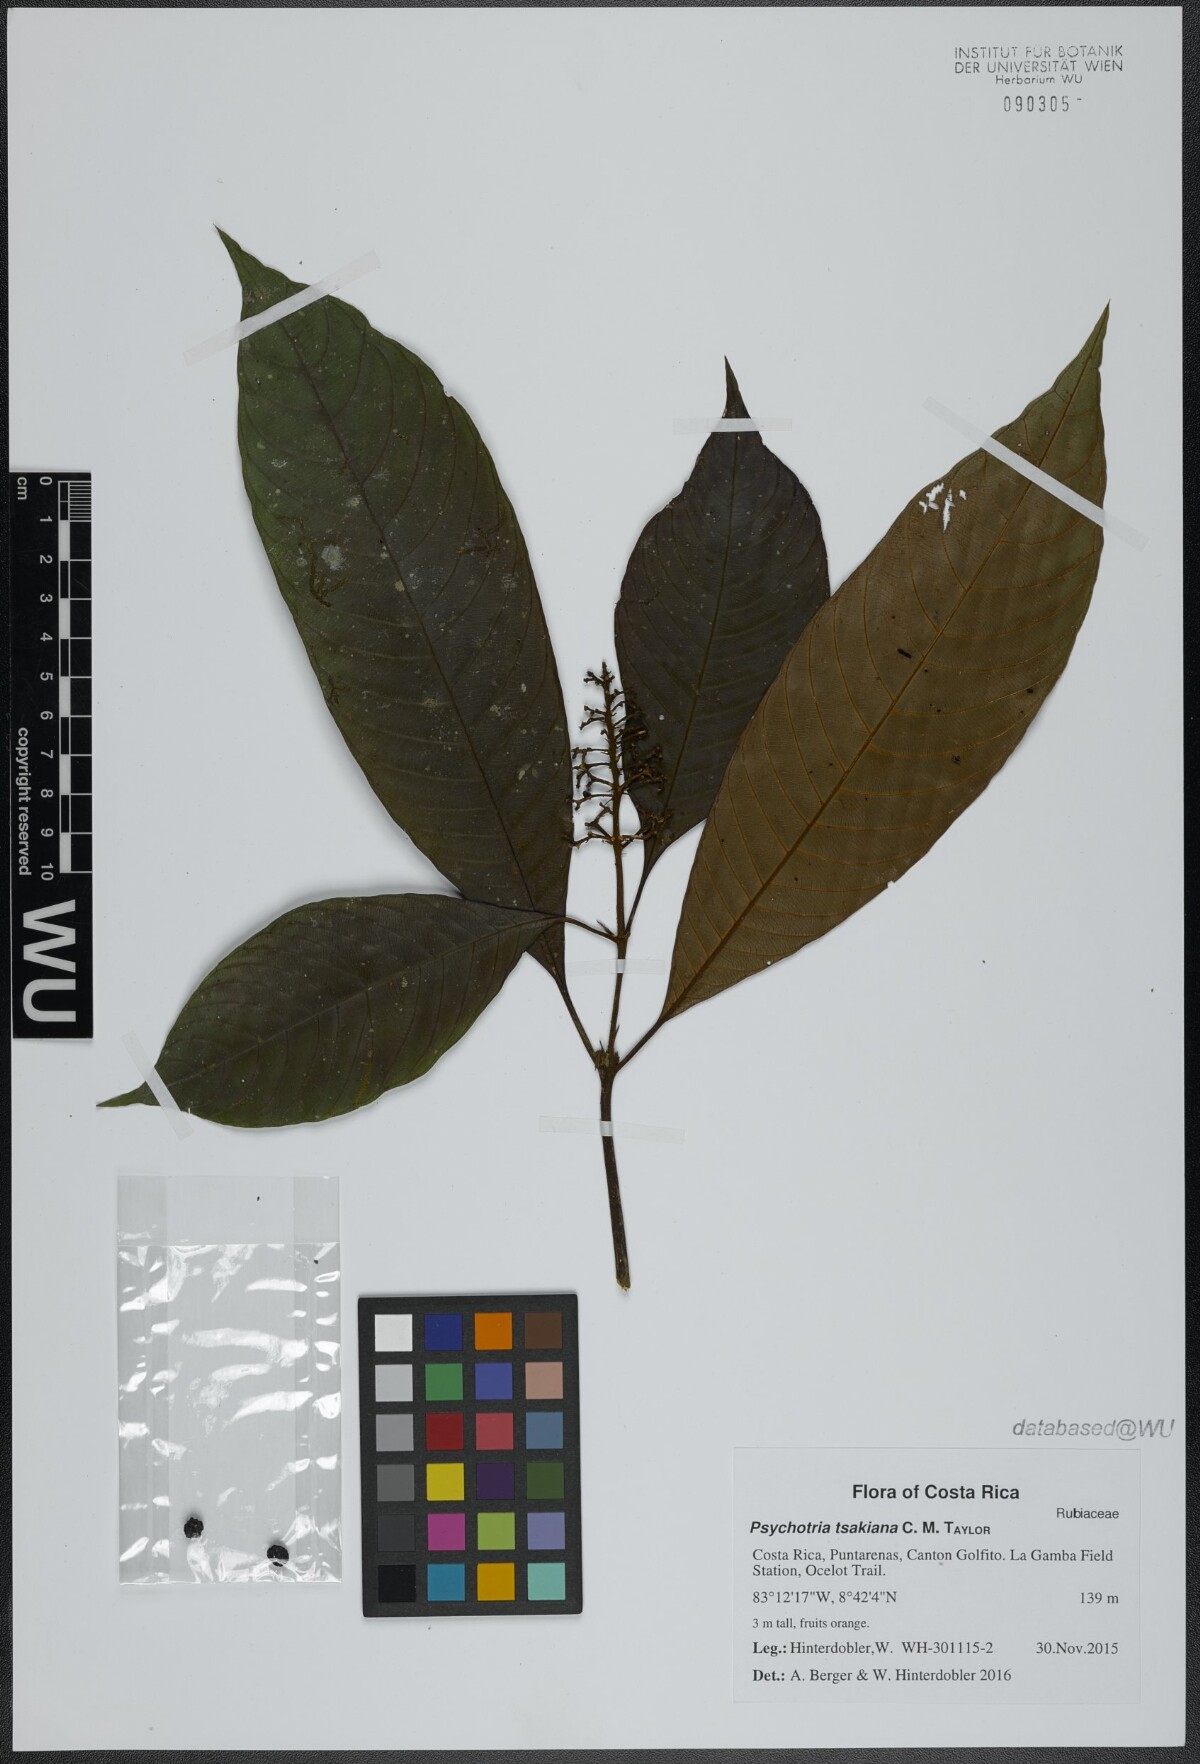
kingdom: Plantae
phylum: Tracheophyta
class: Magnoliopsida
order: Gentianales
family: Rubiaceae
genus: Palicourea
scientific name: Palicourea tsakiana
